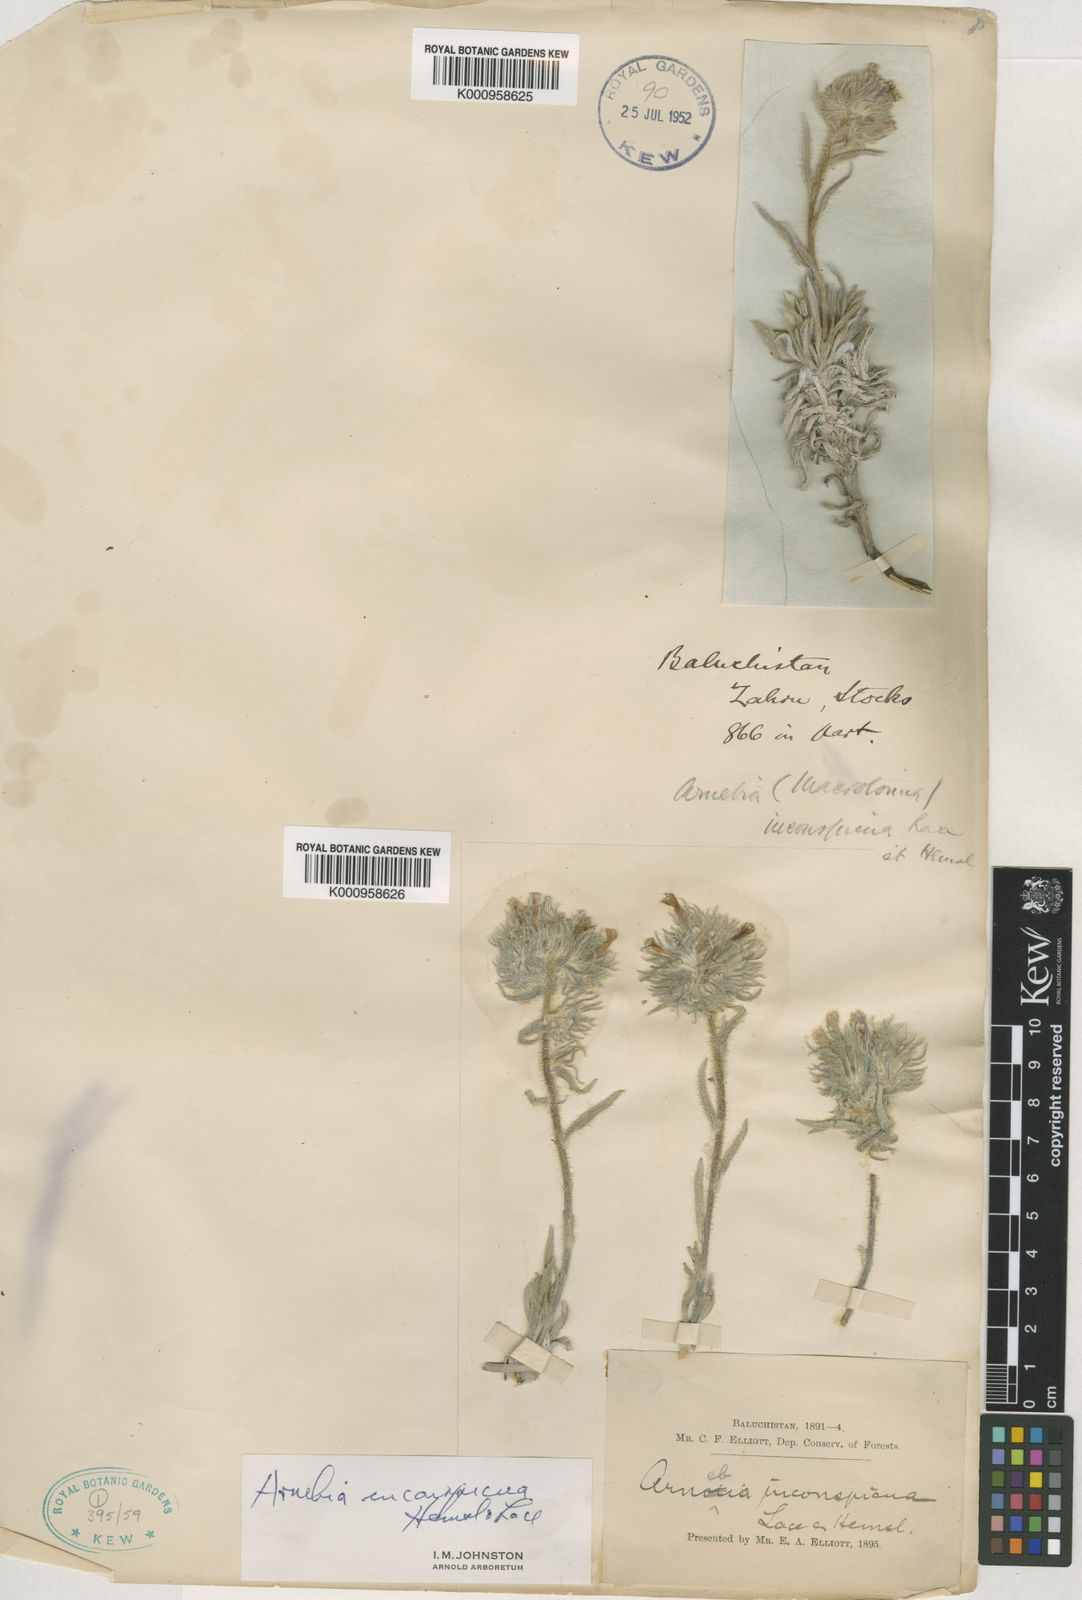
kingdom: Plantae
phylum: Tracheophyta
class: Magnoliopsida
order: Boraginales
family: Boraginaceae
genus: Arnebia
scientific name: Arnebia inconspicua
